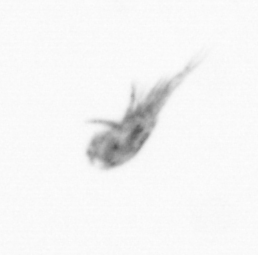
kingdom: Animalia
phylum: Arthropoda
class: Copepoda
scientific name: Copepoda
